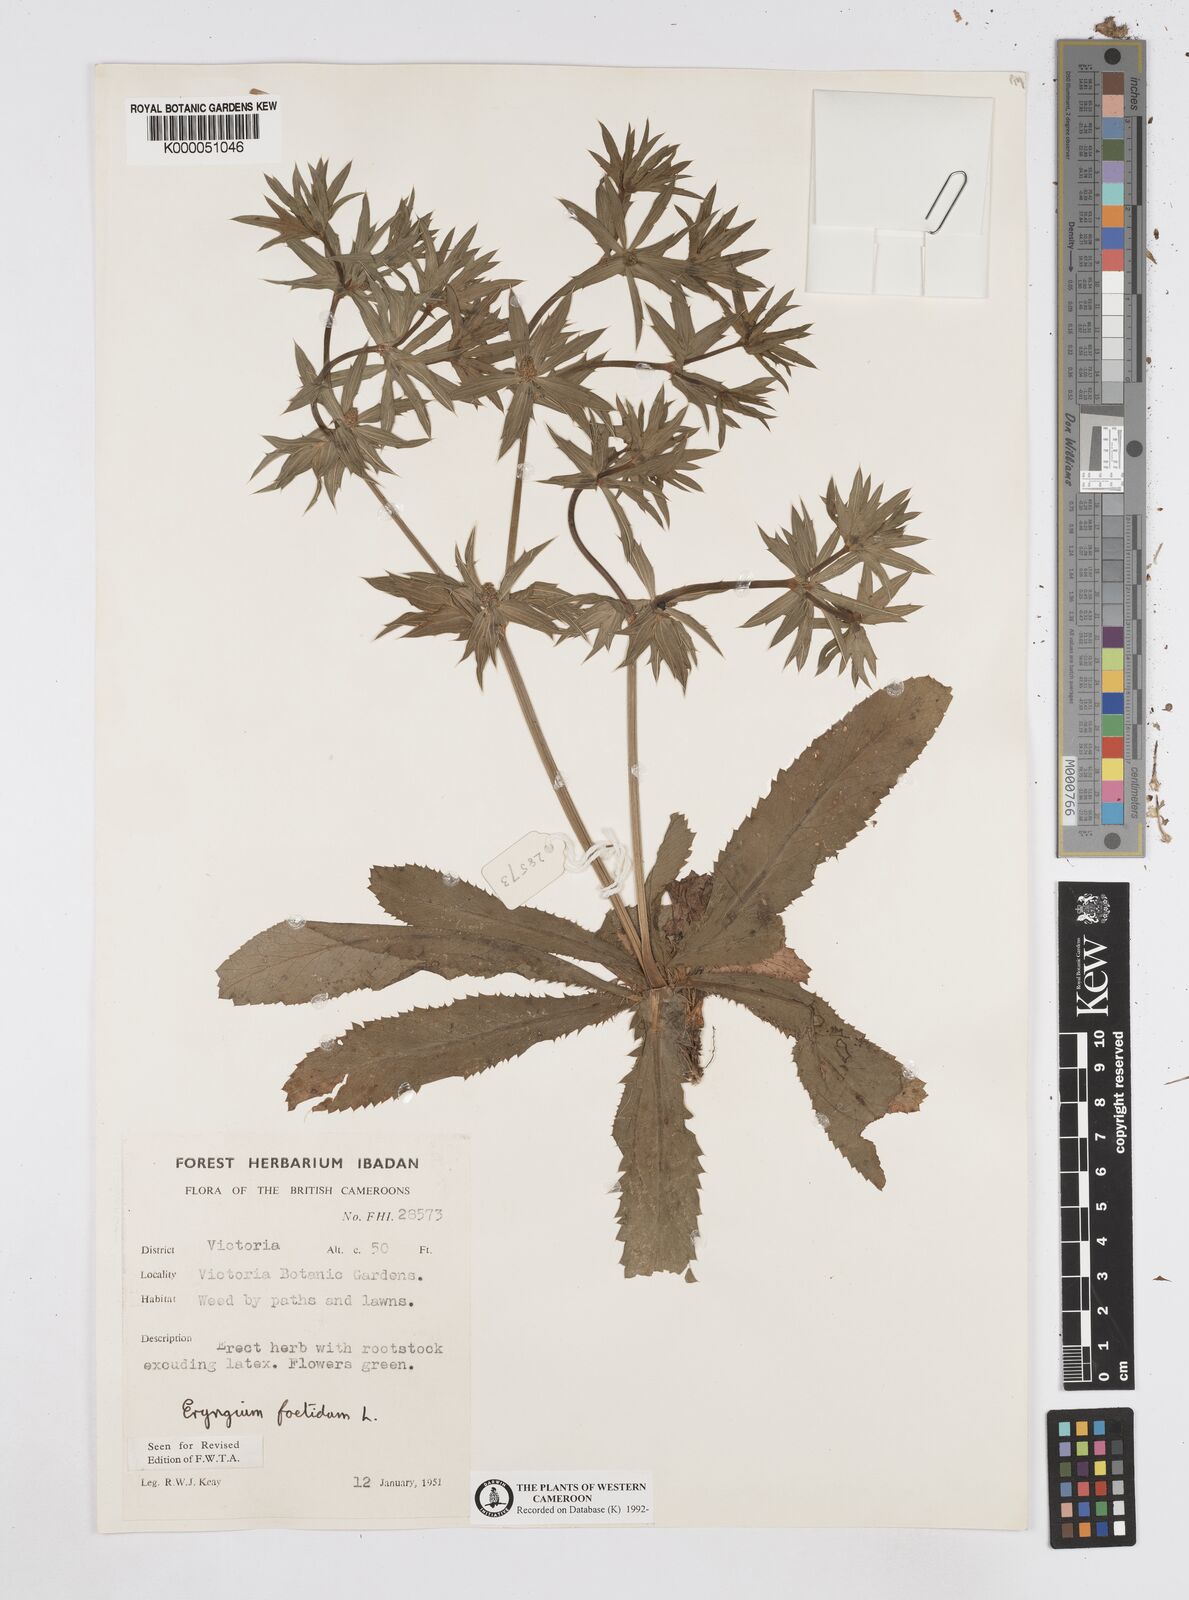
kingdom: Plantae
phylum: Tracheophyta
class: Magnoliopsida
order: Apiales
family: Apiaceae
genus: Eryngium
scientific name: Eryngium foetidum
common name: Fitweed
